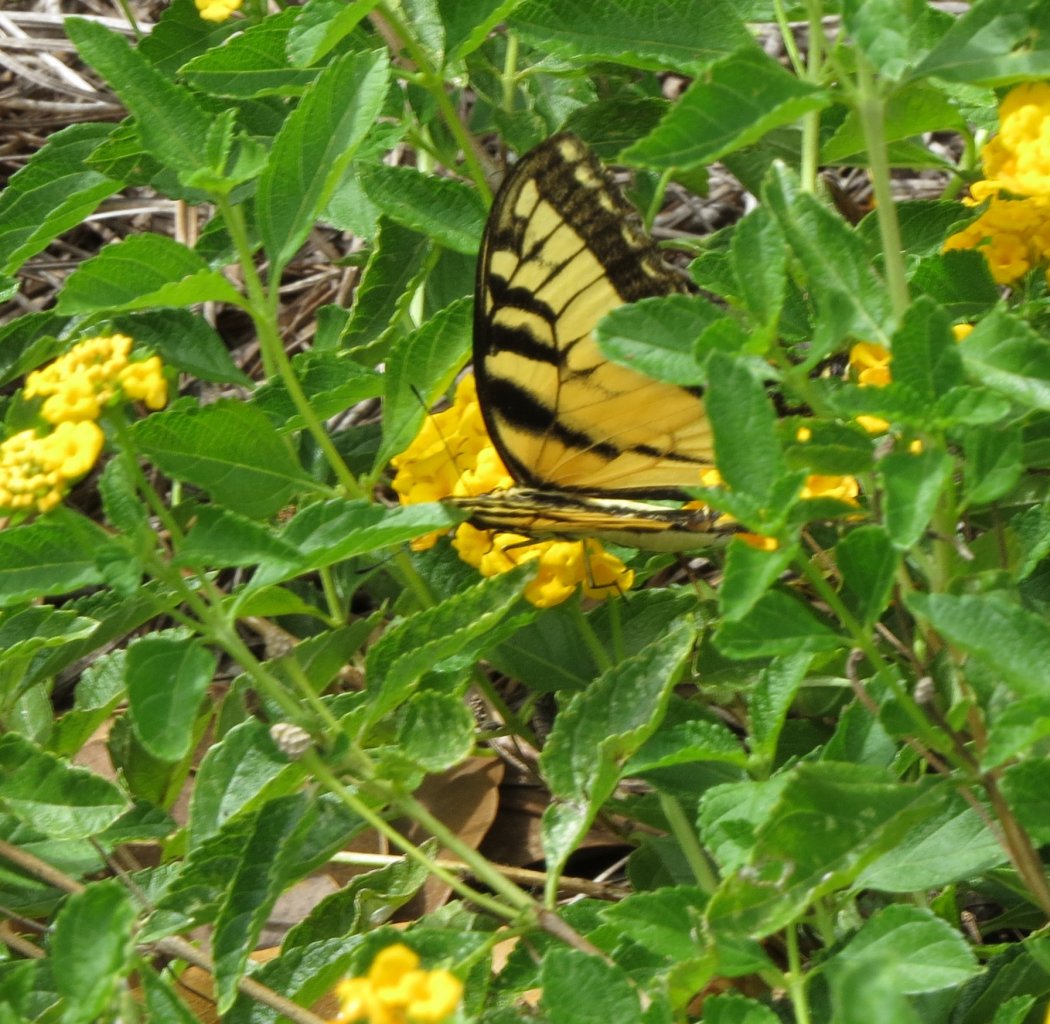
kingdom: Animalia
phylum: Arthropoda
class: Insecta
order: Lepidoptera
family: Papilionidae
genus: Pterourus
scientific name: Pterourus glaucus
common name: Eastern Tiger Swallowtail
